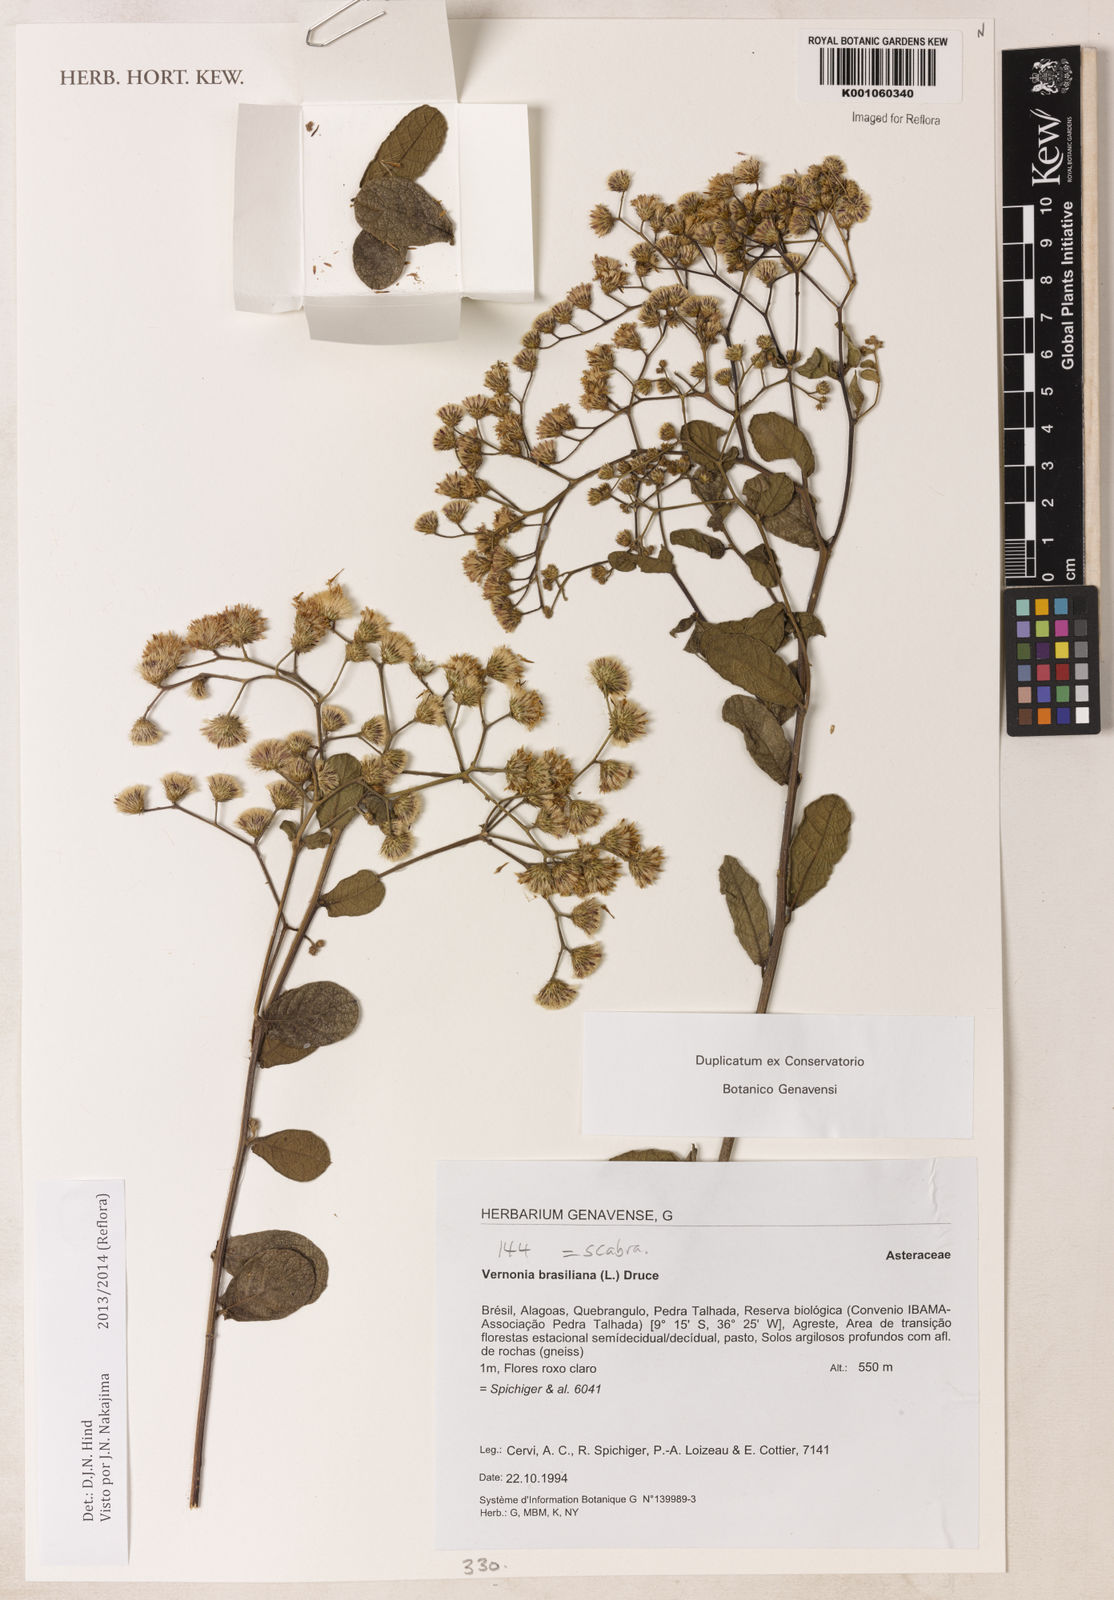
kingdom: Plantae
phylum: Tracheophyta
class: Magnoliopsida
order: Asterales
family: Asteraceae
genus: Vernonanthura
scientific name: Vernonanthura brasiliana
